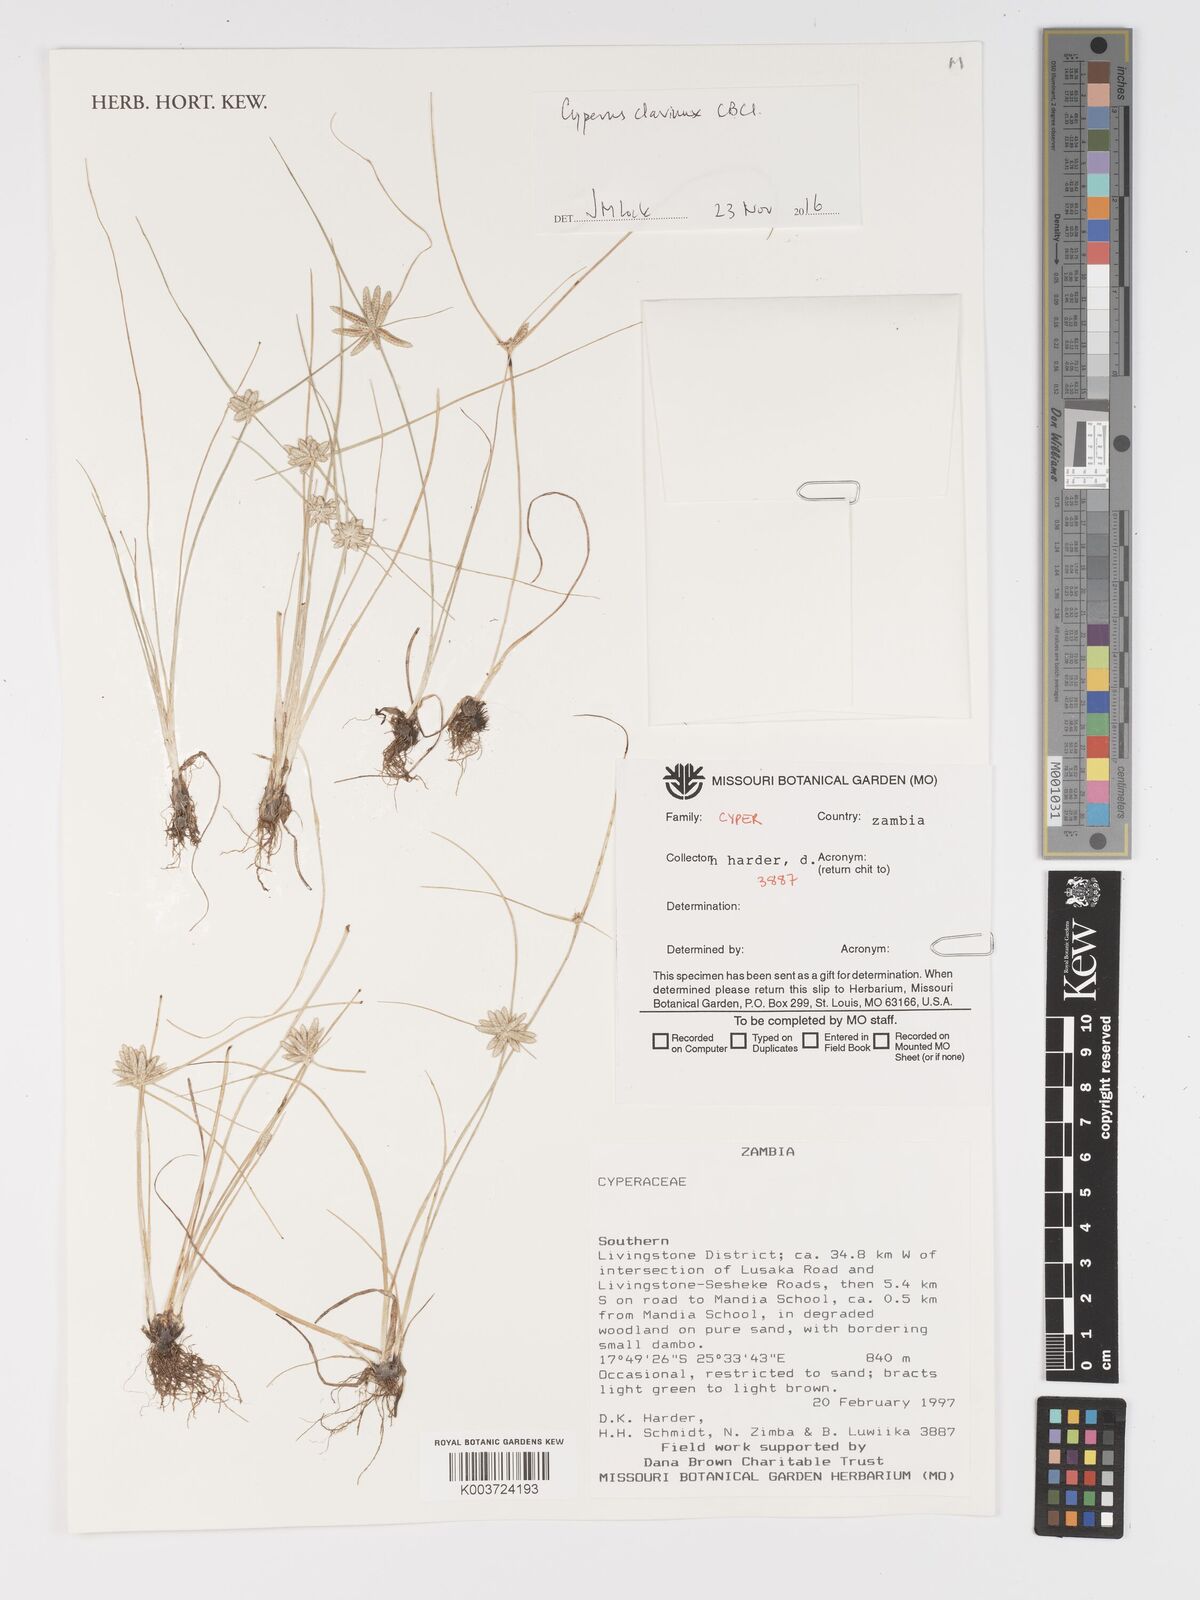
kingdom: Plantae
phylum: Tracheophyta
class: Liliopsida
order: Poales
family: Cyperaceae
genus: Cyperus
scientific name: Cyperus clavinux
